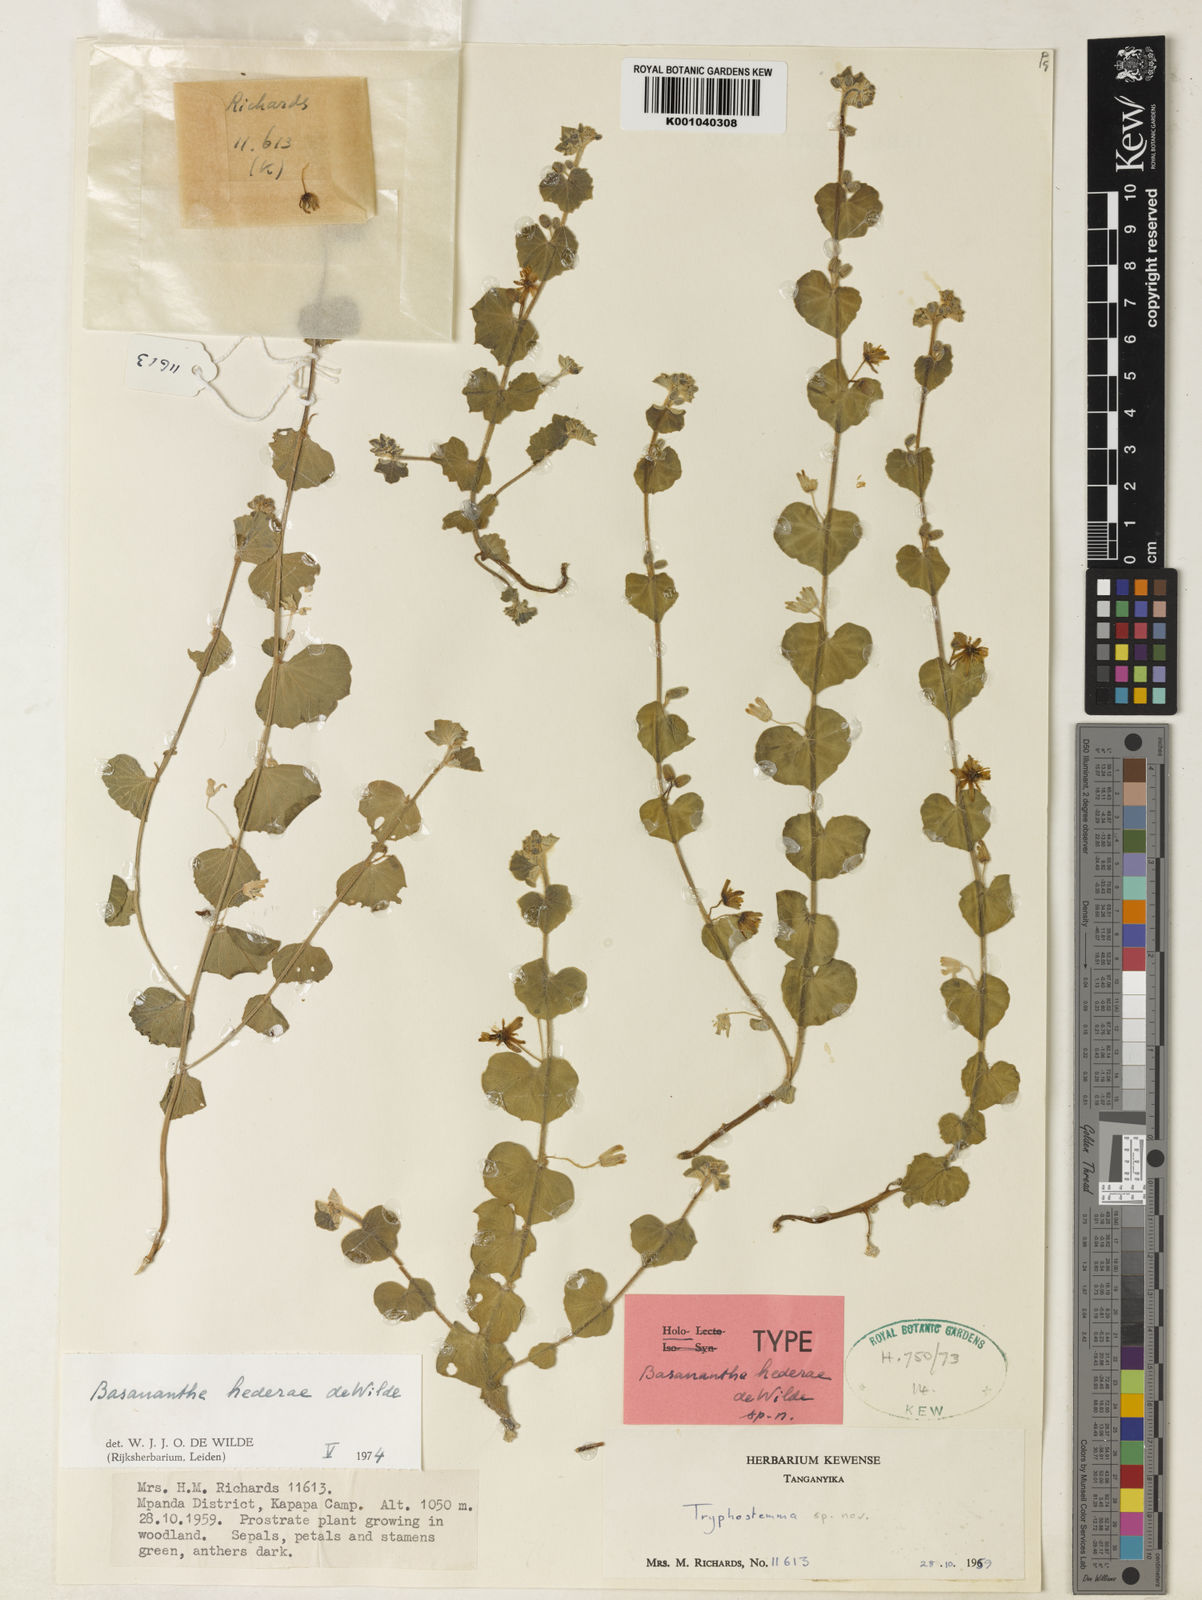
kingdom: Plantae
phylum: Tracheophyta
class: Magnoliopsida
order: Malpighiales
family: Passifloraceae
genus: Basananthe
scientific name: Basananthe hederae
